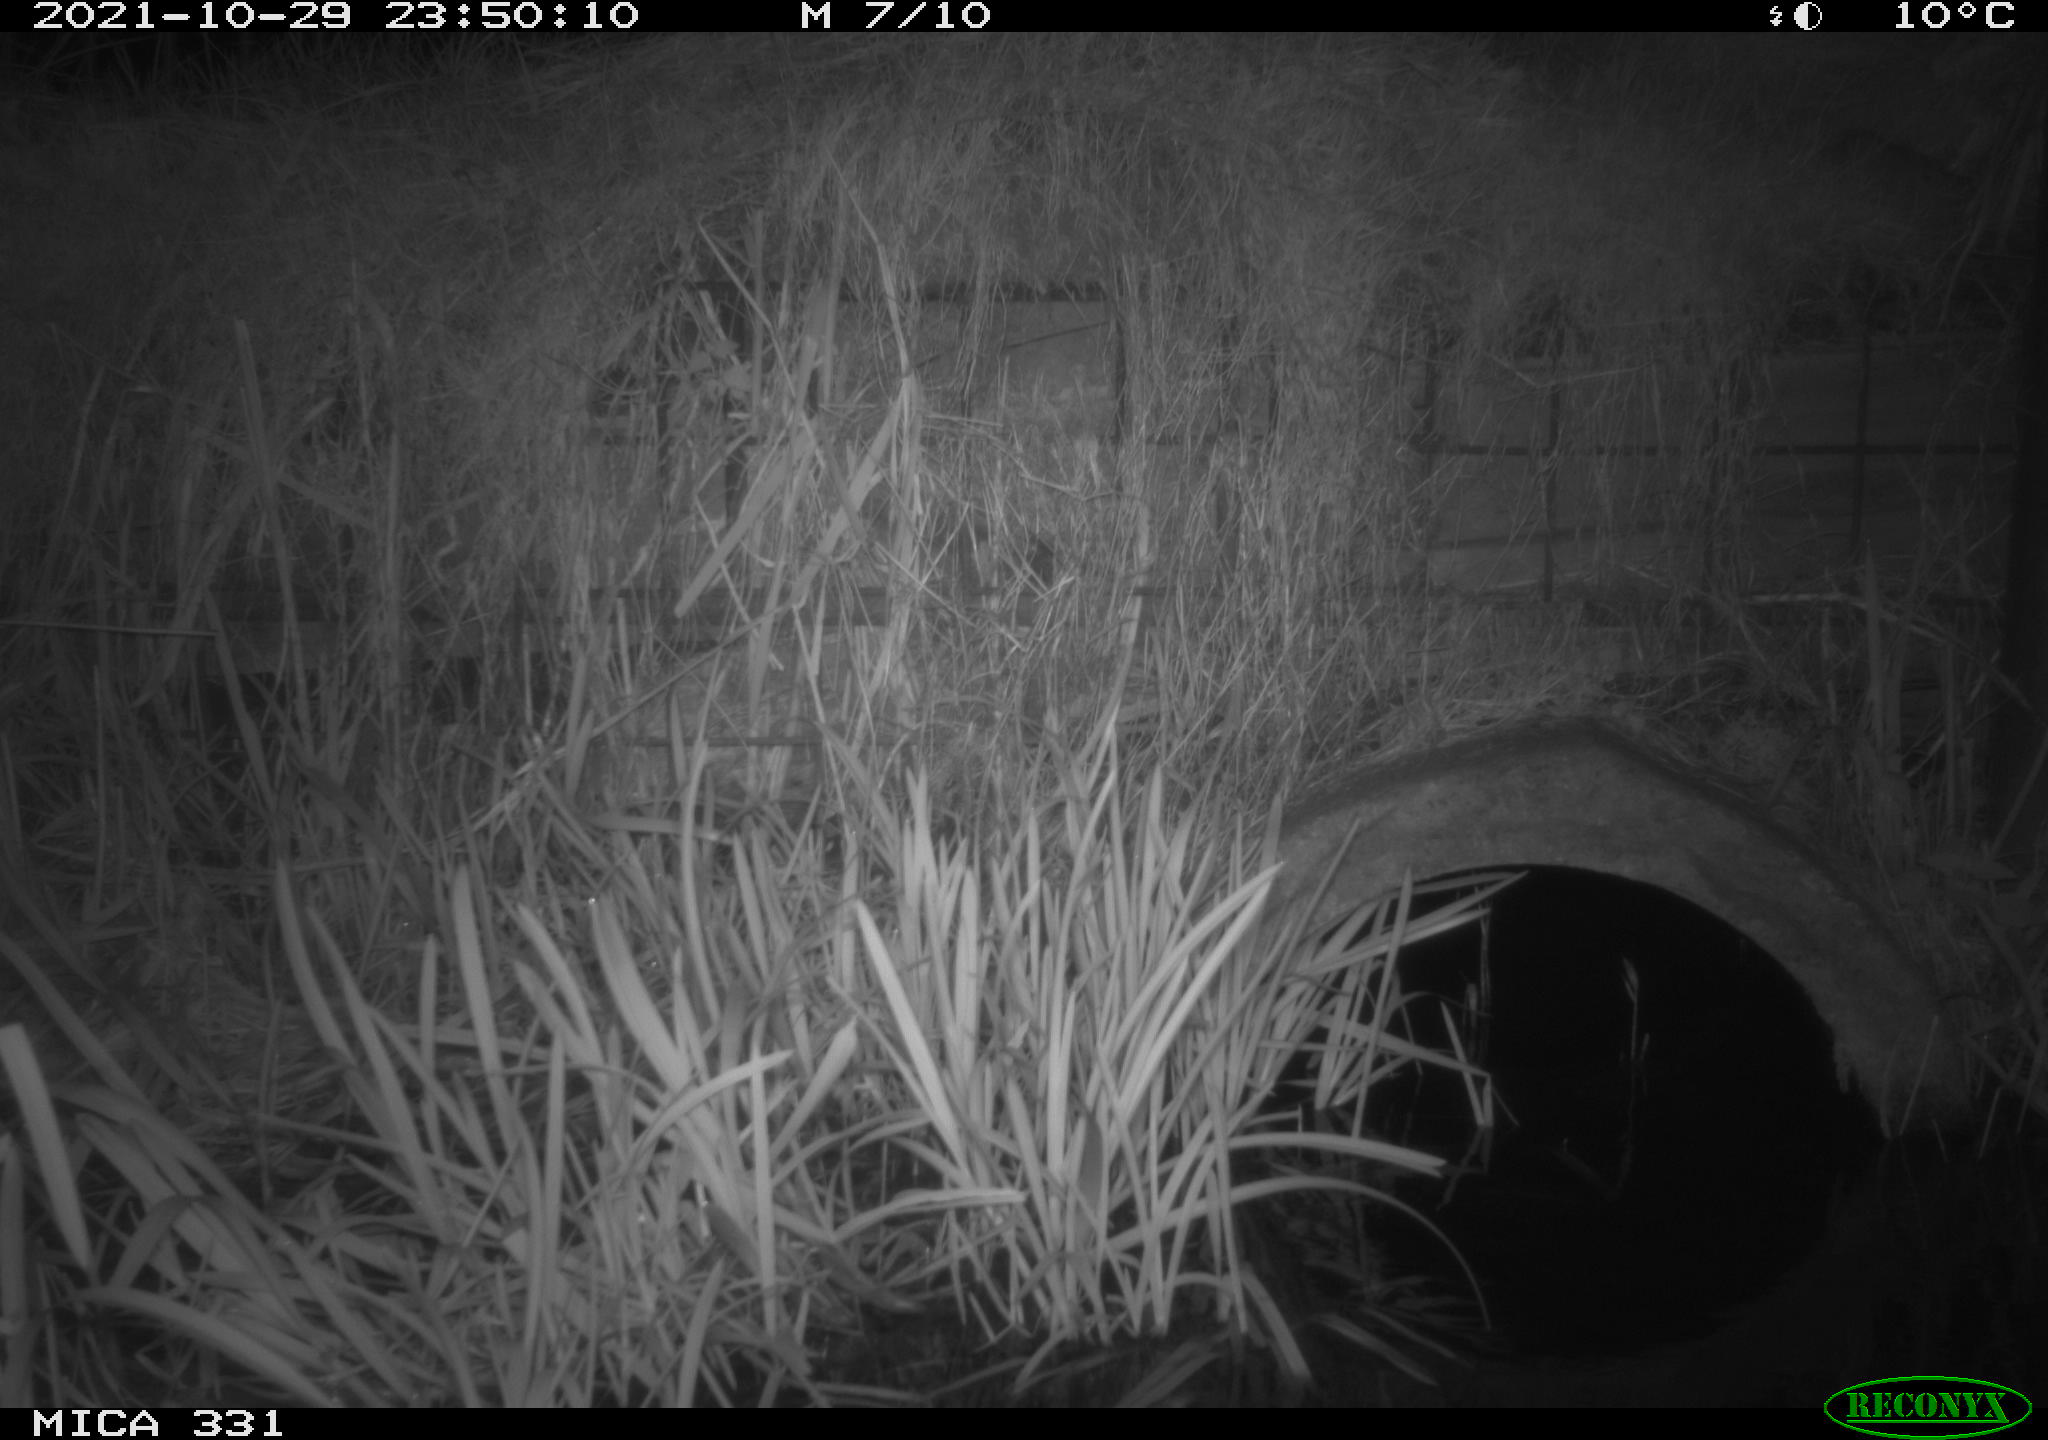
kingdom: Animalia
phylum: Chordata
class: Mammalia
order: Rodentia
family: Muridae
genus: Rattus
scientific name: Rattus norvegicus
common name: Brown rat
